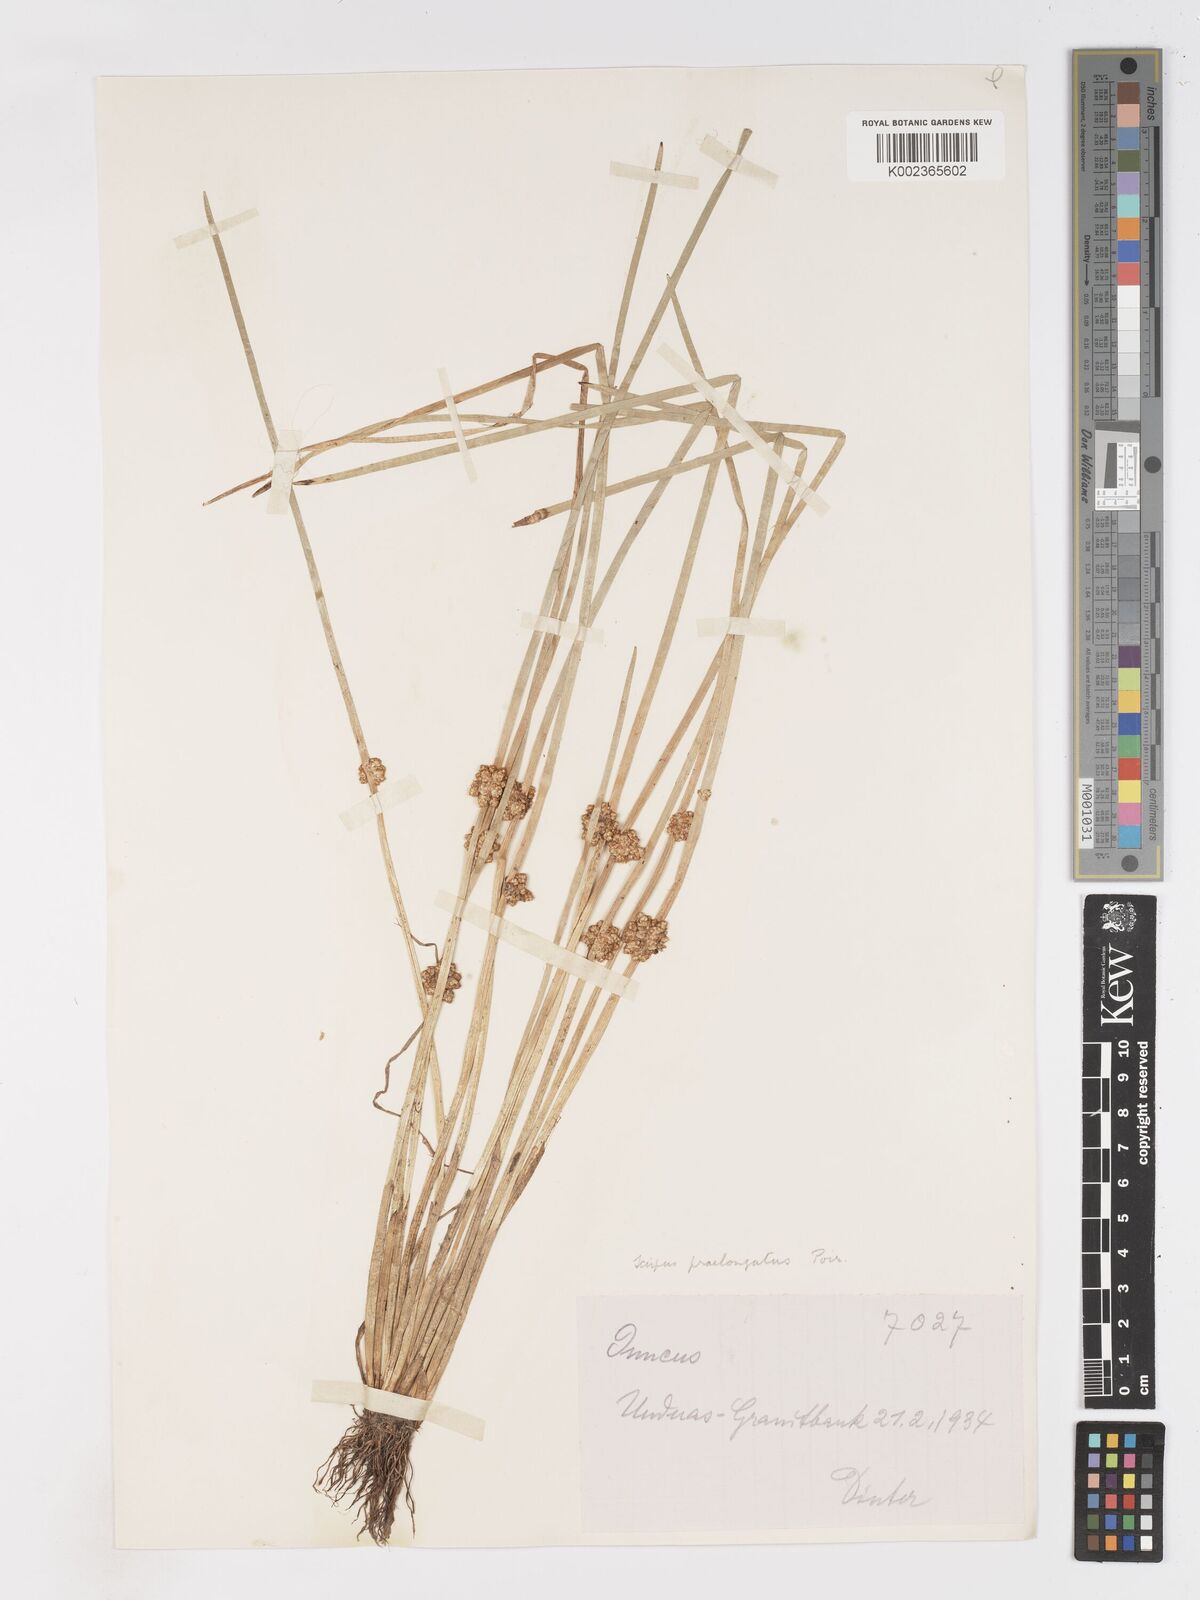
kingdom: Plantae
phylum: Tracheophyta
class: Liliopsida
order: Poales
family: Cyperaceae
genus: Schoenoplectiella
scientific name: Schoenoplectiella senegalensis
